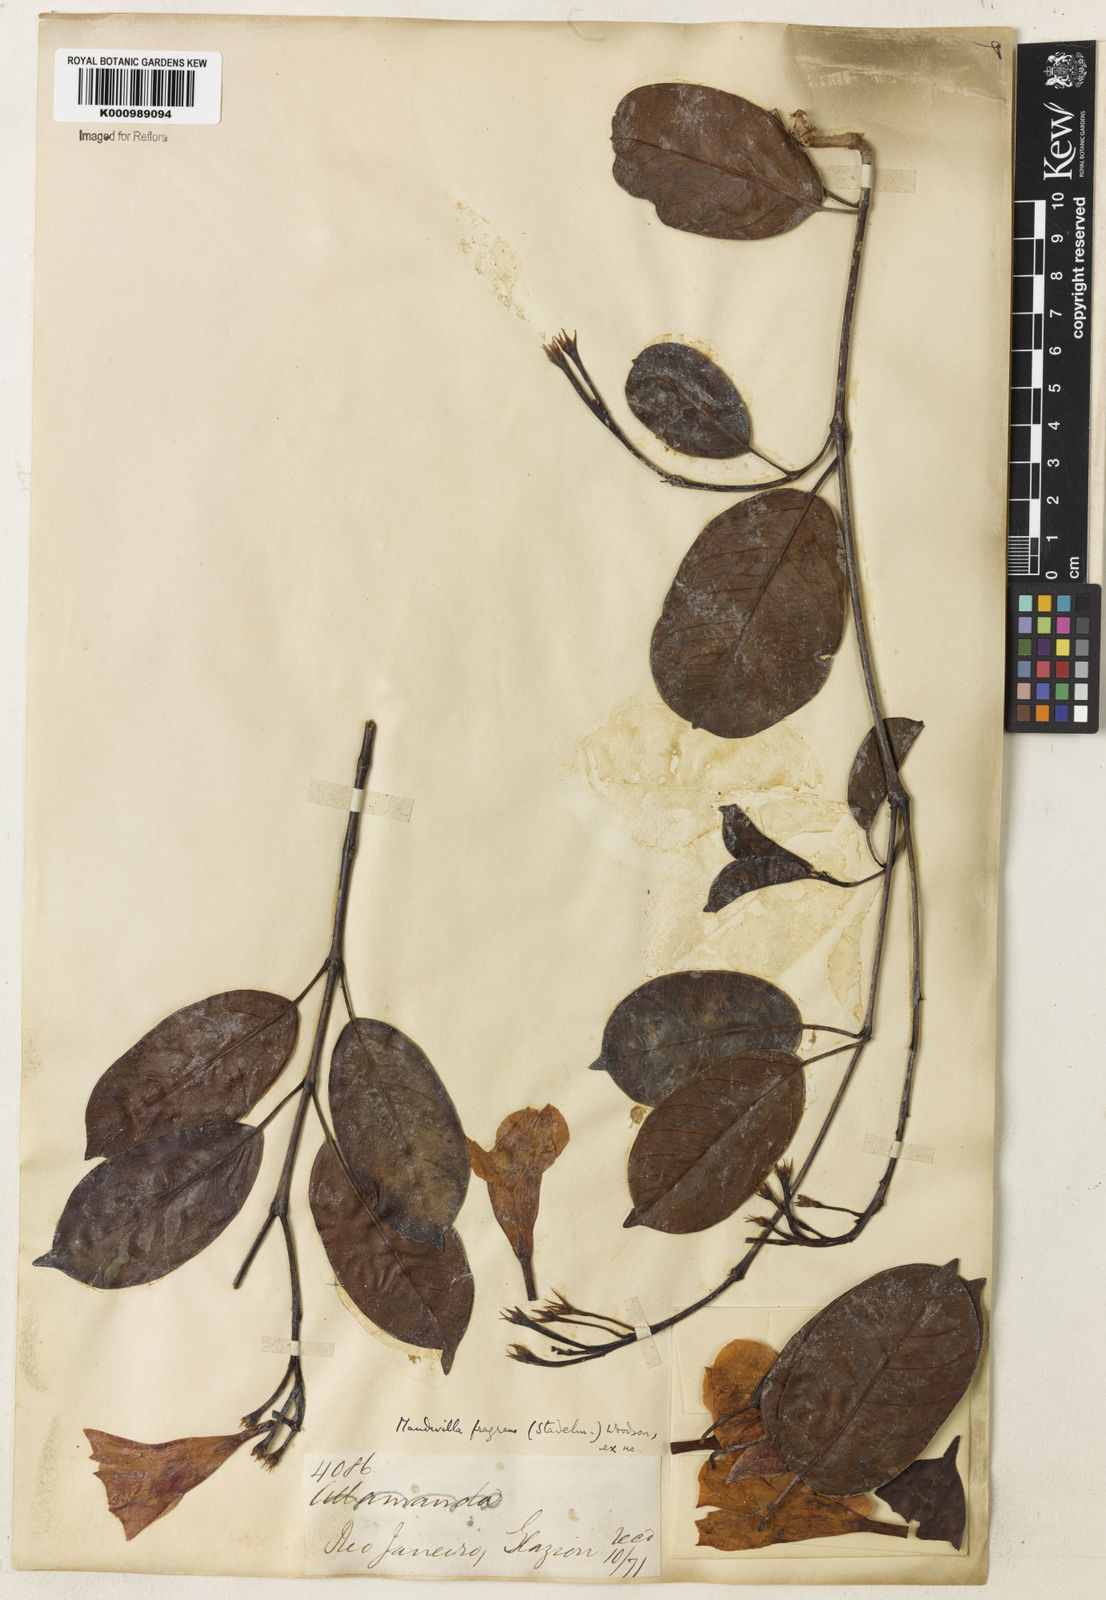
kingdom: Plantae
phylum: Tracheophyta
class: Magnoliopsida
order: Gentianales
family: Apocynaceae
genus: Mandevilla
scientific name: Mandevilla fragrans
